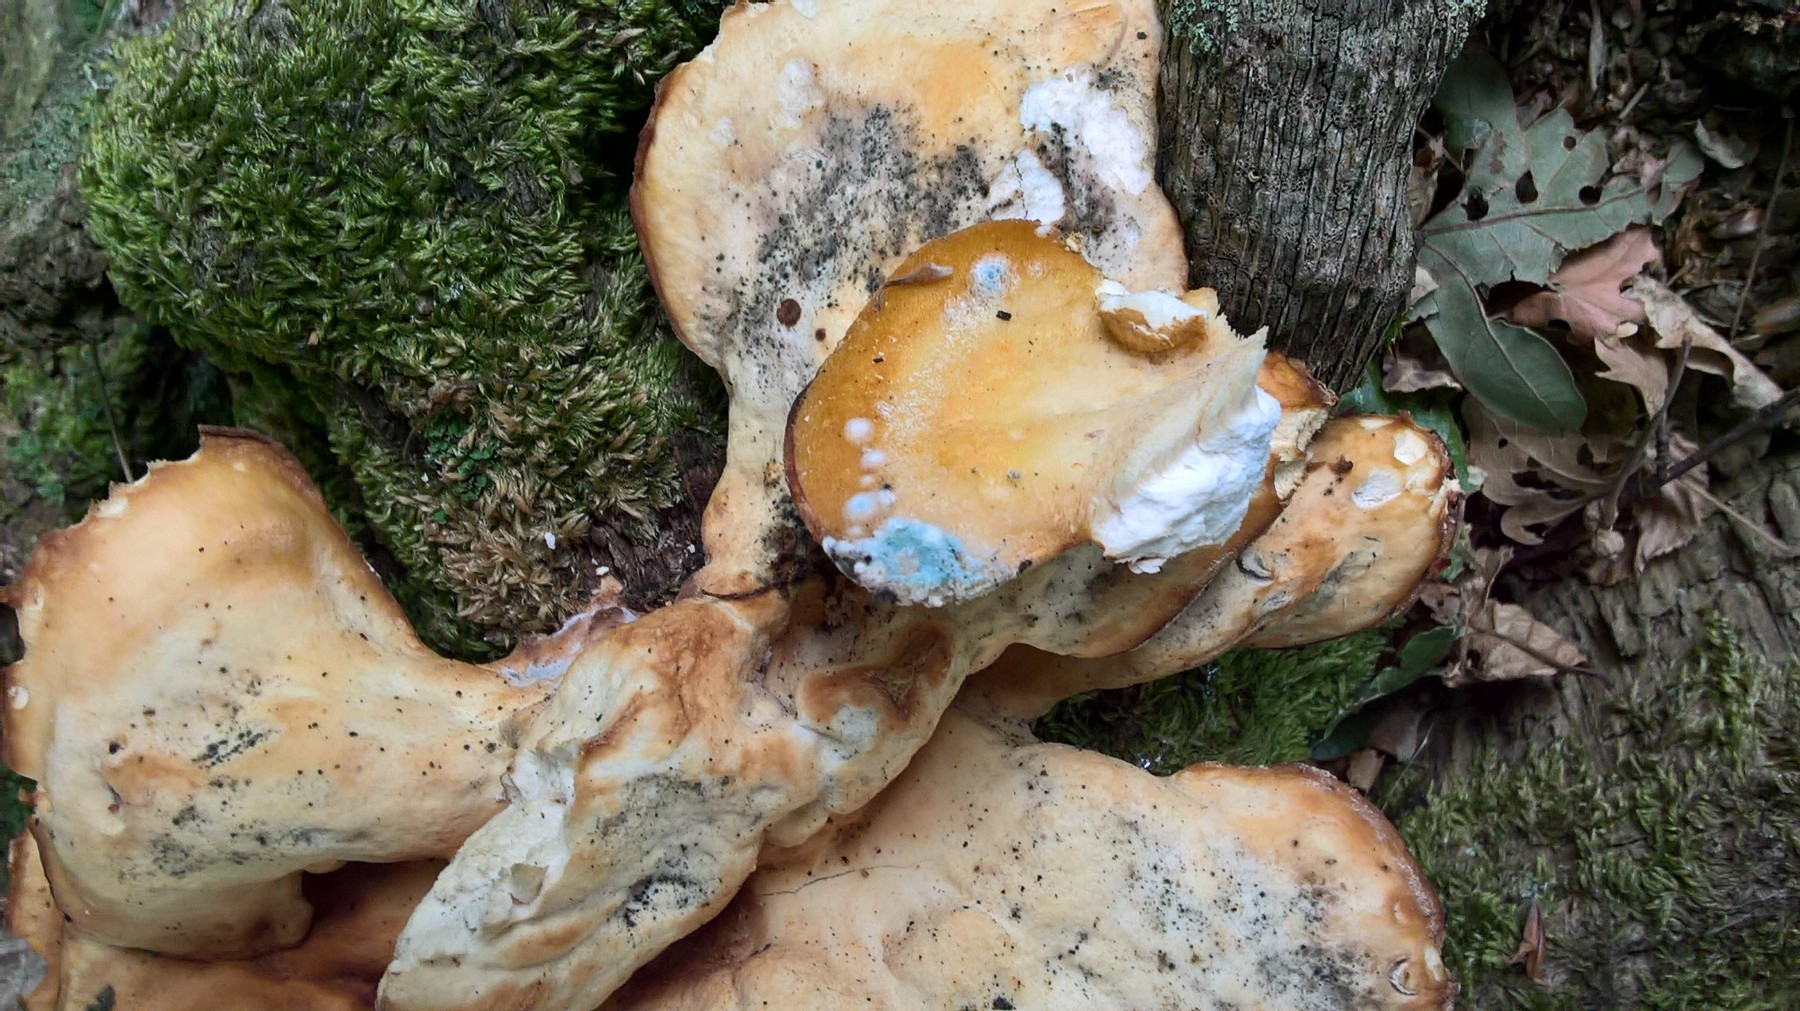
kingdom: Fungi
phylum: Basidiomycota
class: Agaricomycetes
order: Polyporales
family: Laetiporaceae
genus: Laetiporus
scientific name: Laetiporus sulphureus
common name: svovlporesvamp
